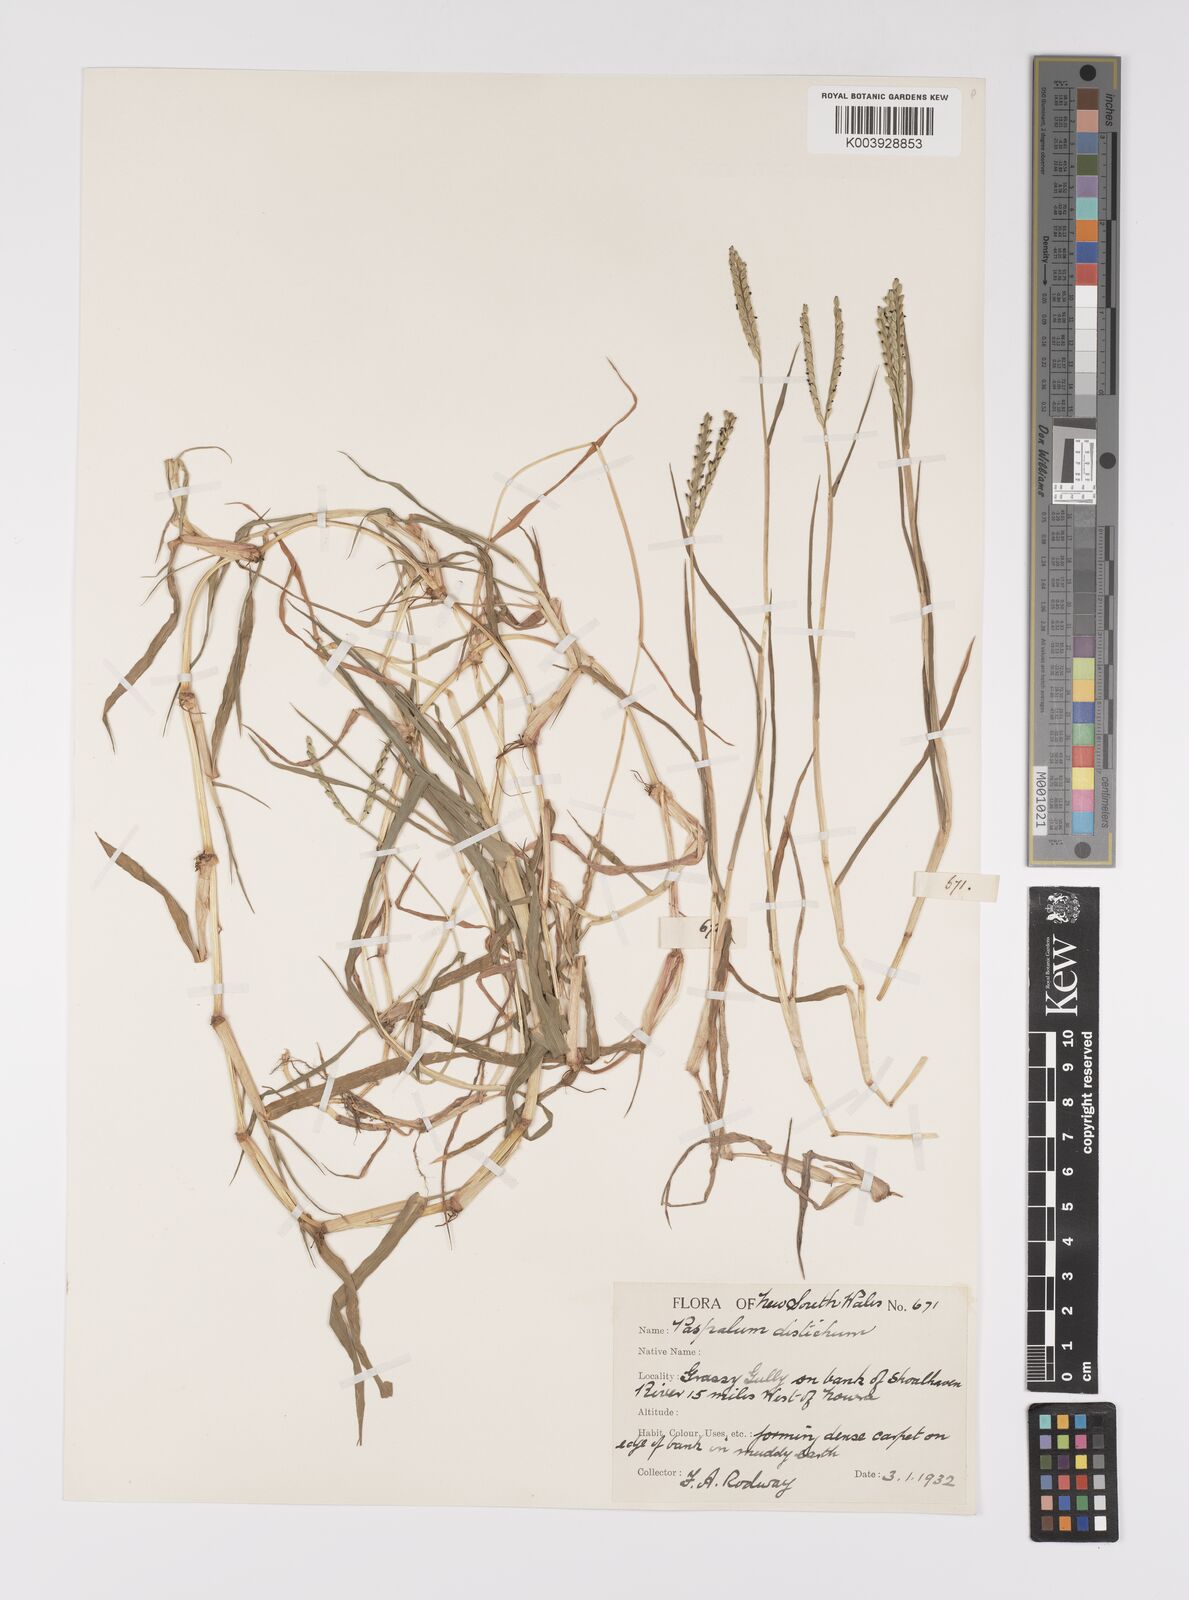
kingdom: Plantae
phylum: Tracheophyta
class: Liliopsida
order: Poales
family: Poaceae
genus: Paspalum
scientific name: Paspalum distichum
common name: Knotgrass
